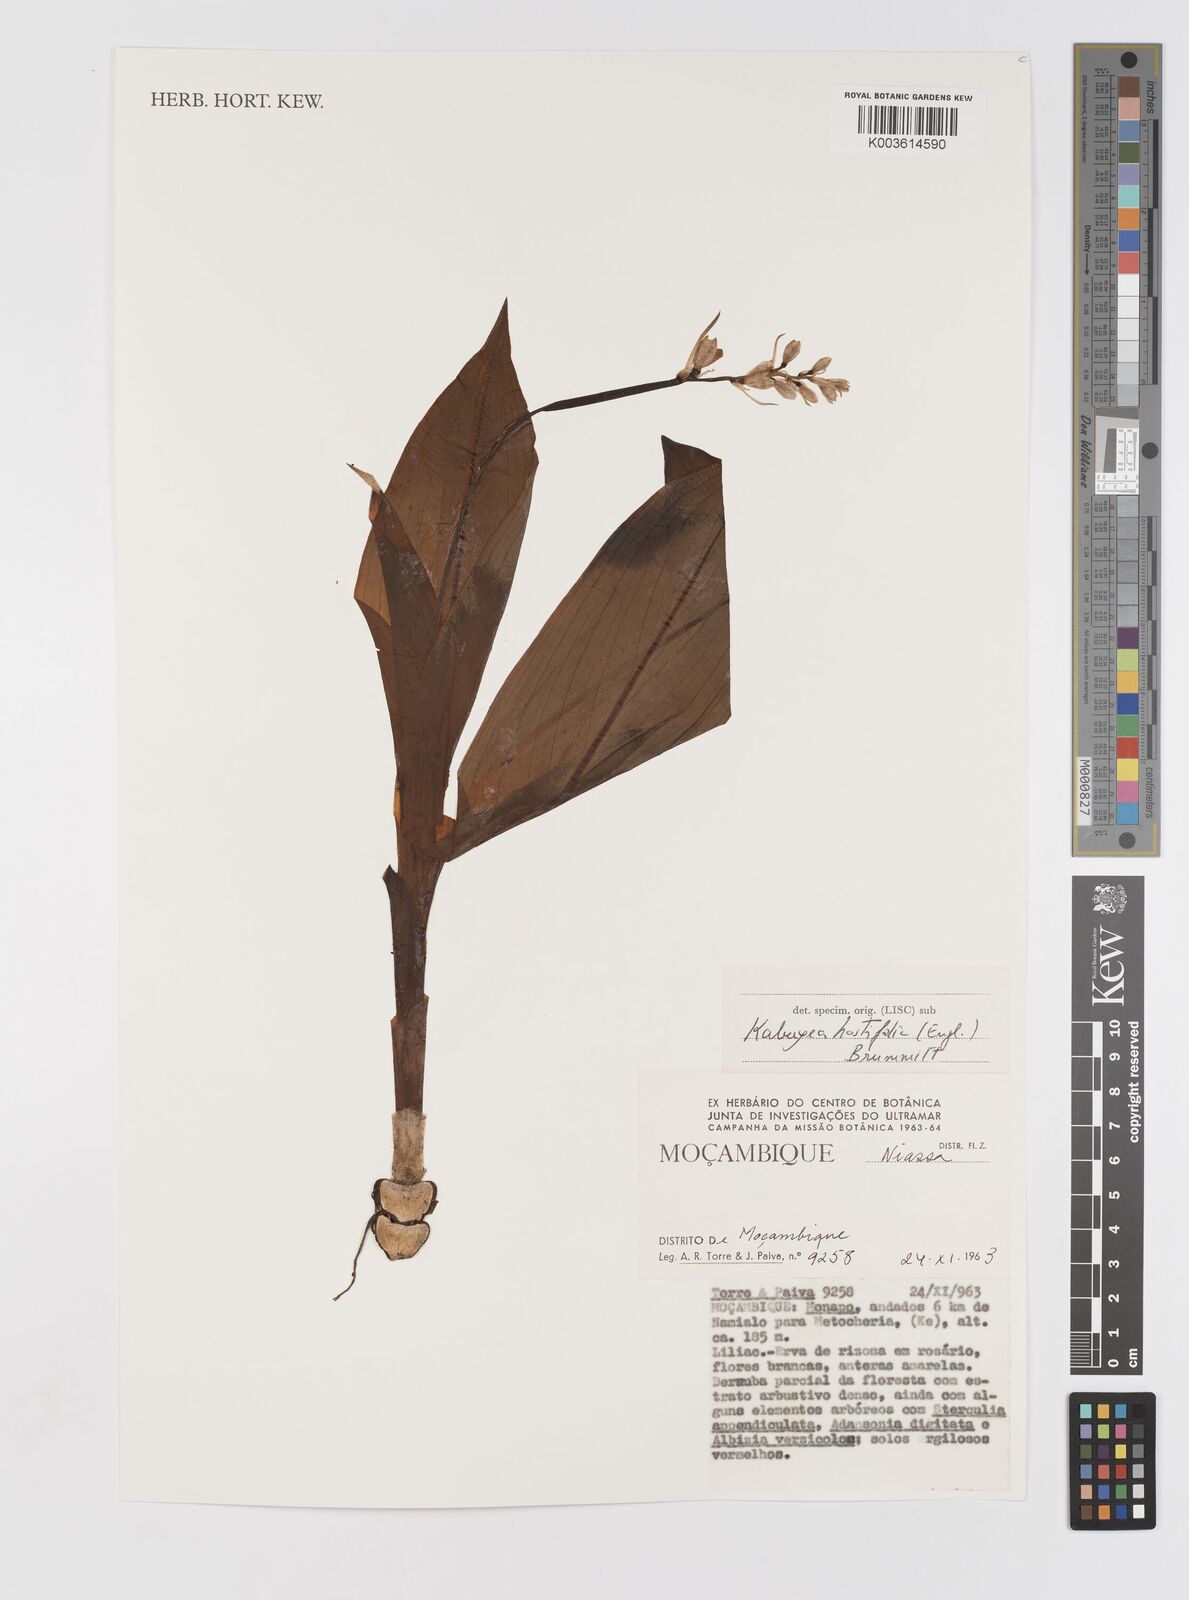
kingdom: Plantae
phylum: Tracheophyta
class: Liliopsida
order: Asparagales
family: Tecophilaeaceae
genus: Kabuyea
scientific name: Kabuyea hostifolia
